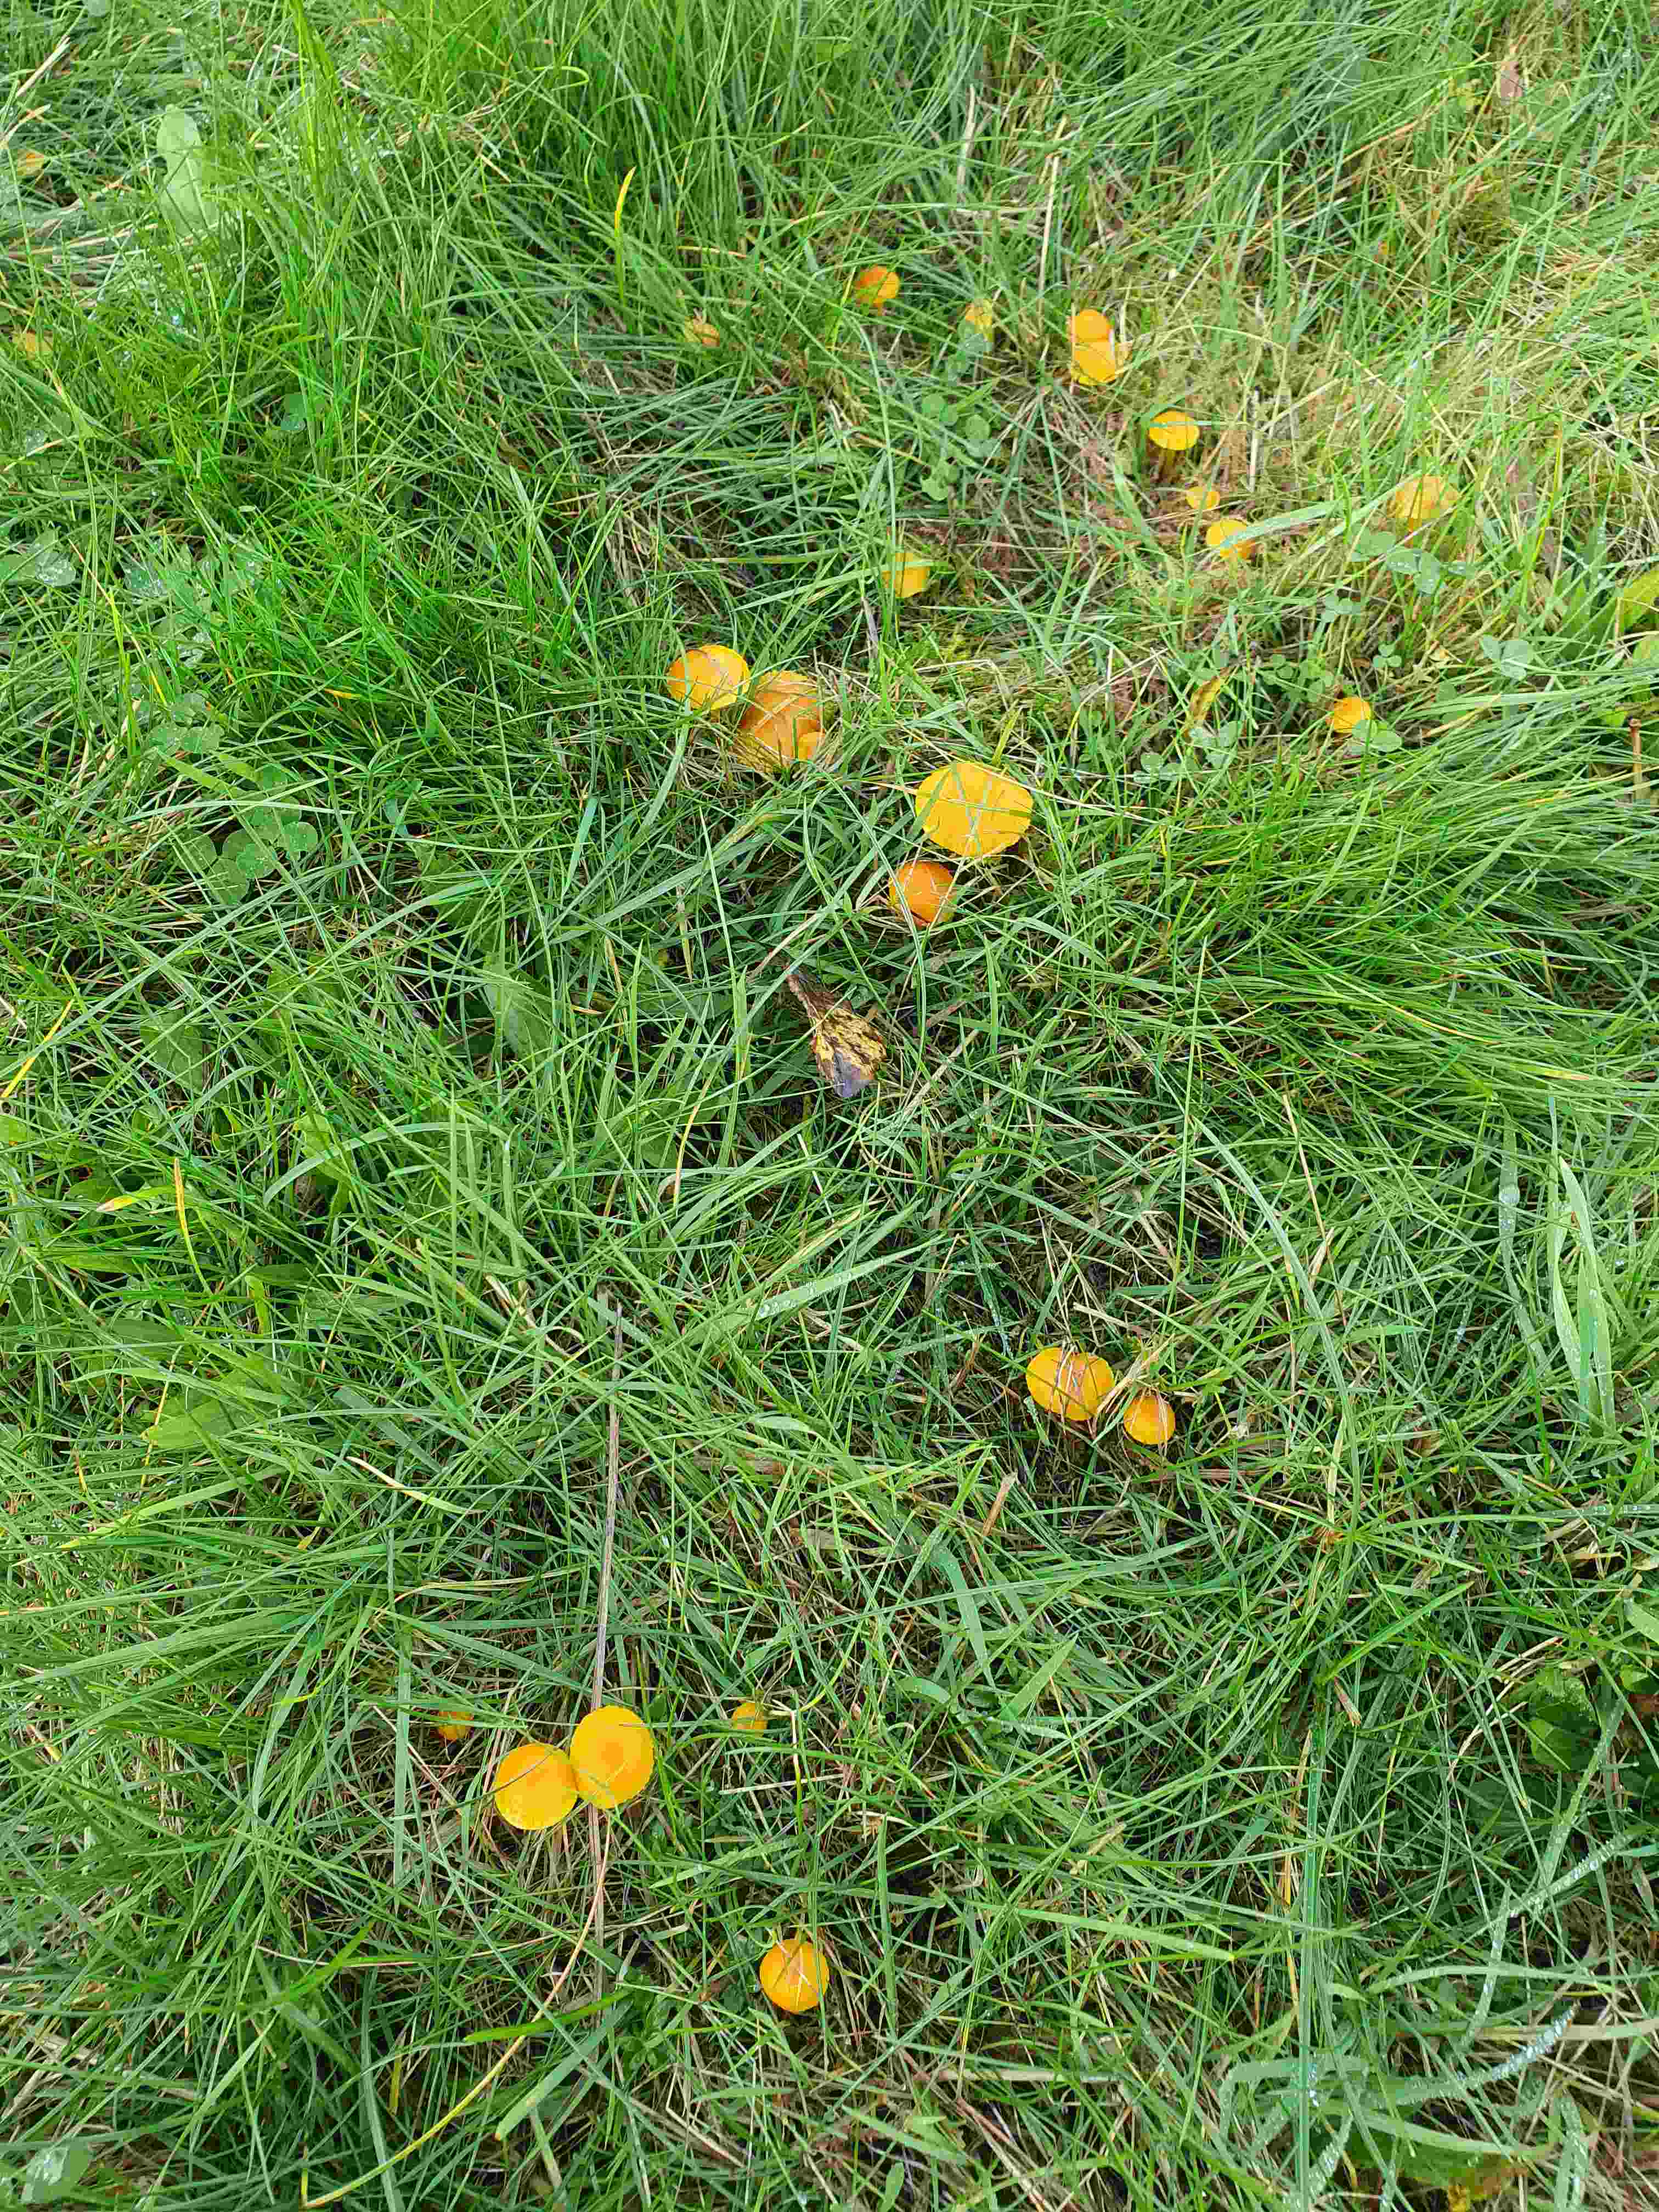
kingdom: Fungi
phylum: Basidiomycota
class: Agaricomycetes
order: Agaricales
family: Hygrophoraceae
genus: Hygrocybe
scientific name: Hygrocybe ceracea
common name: voksgul vokshat
